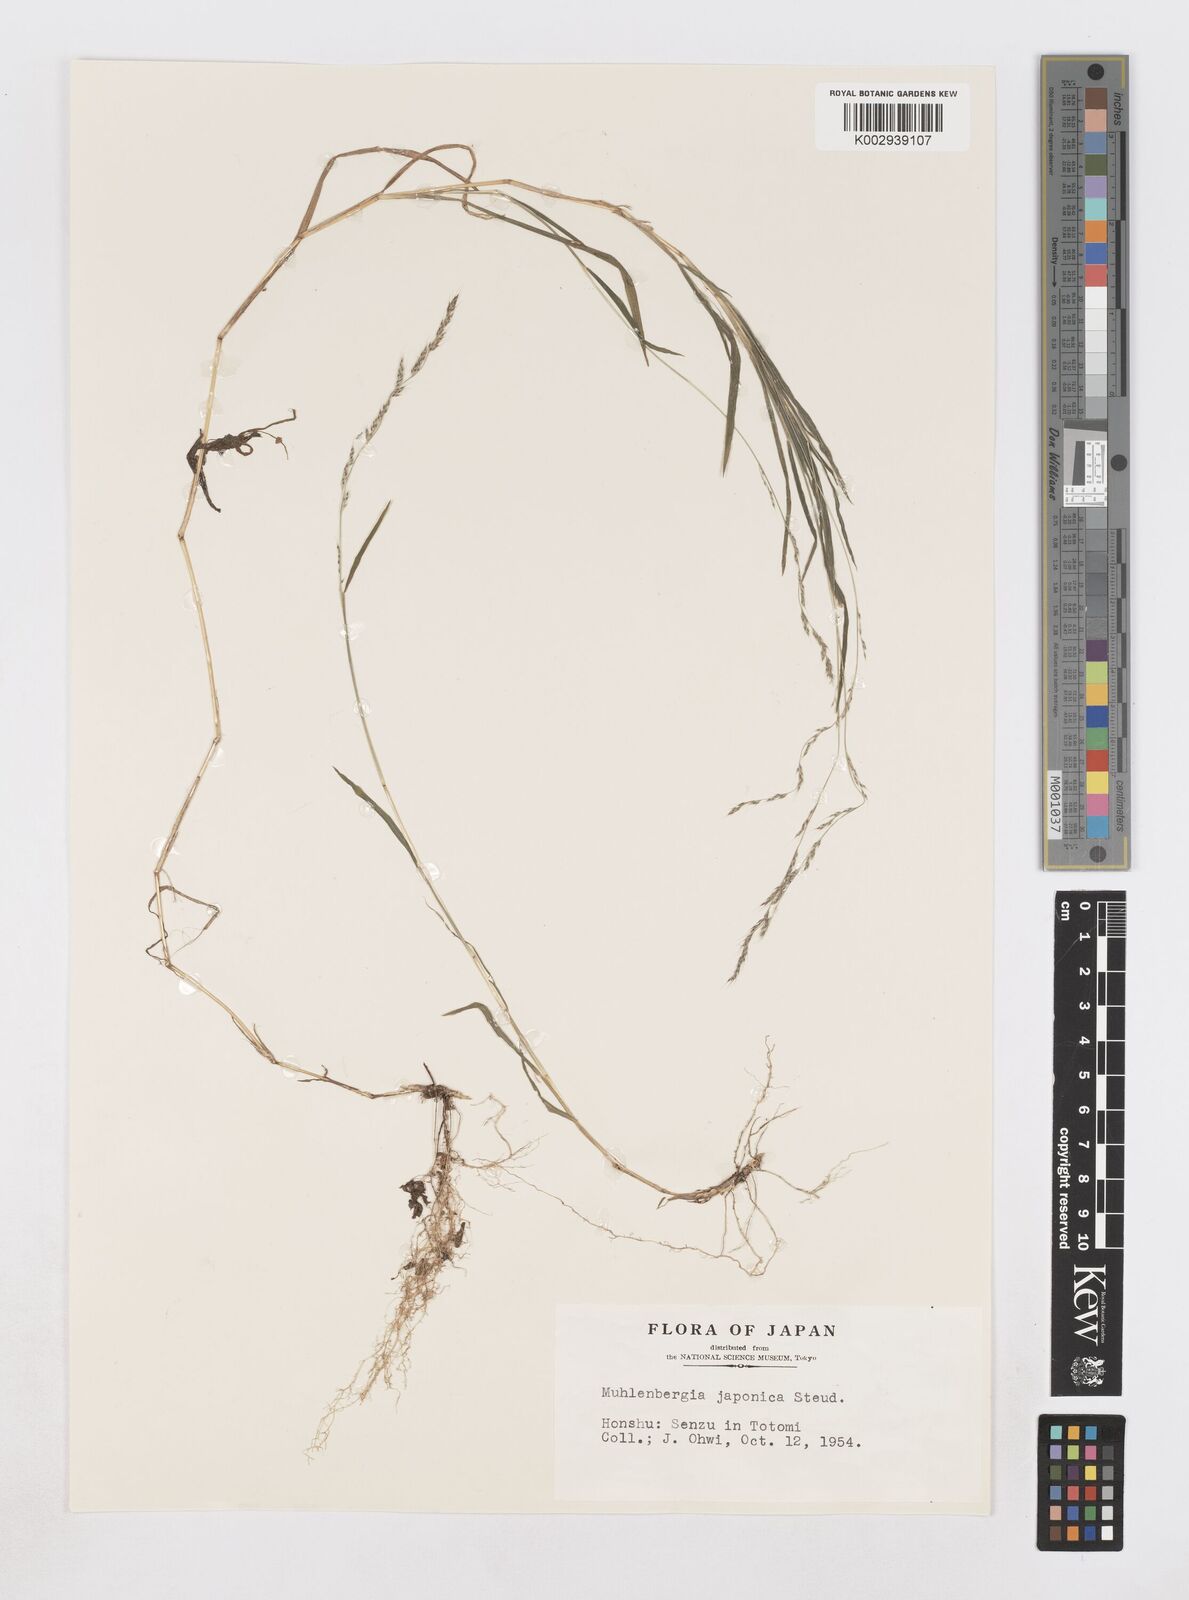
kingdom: Plantae
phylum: Tracheophyta
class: Liliopsida
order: Poales
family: Poaceae
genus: Muhlenbergia
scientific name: Muhlenbergia japonica
